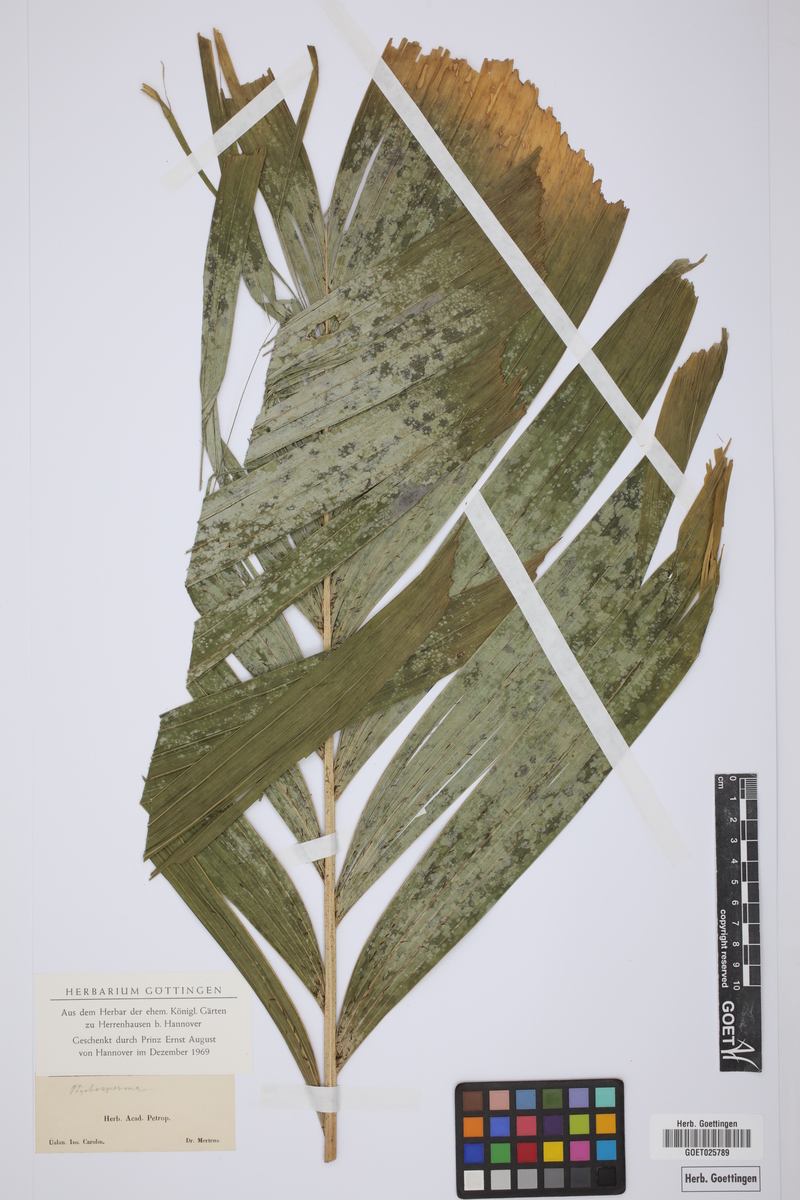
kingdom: Plantae
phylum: Tracheophyta
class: Liliopsida
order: Arecales
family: Arecaceae
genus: Ptychosperma
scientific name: Ptychosperma
